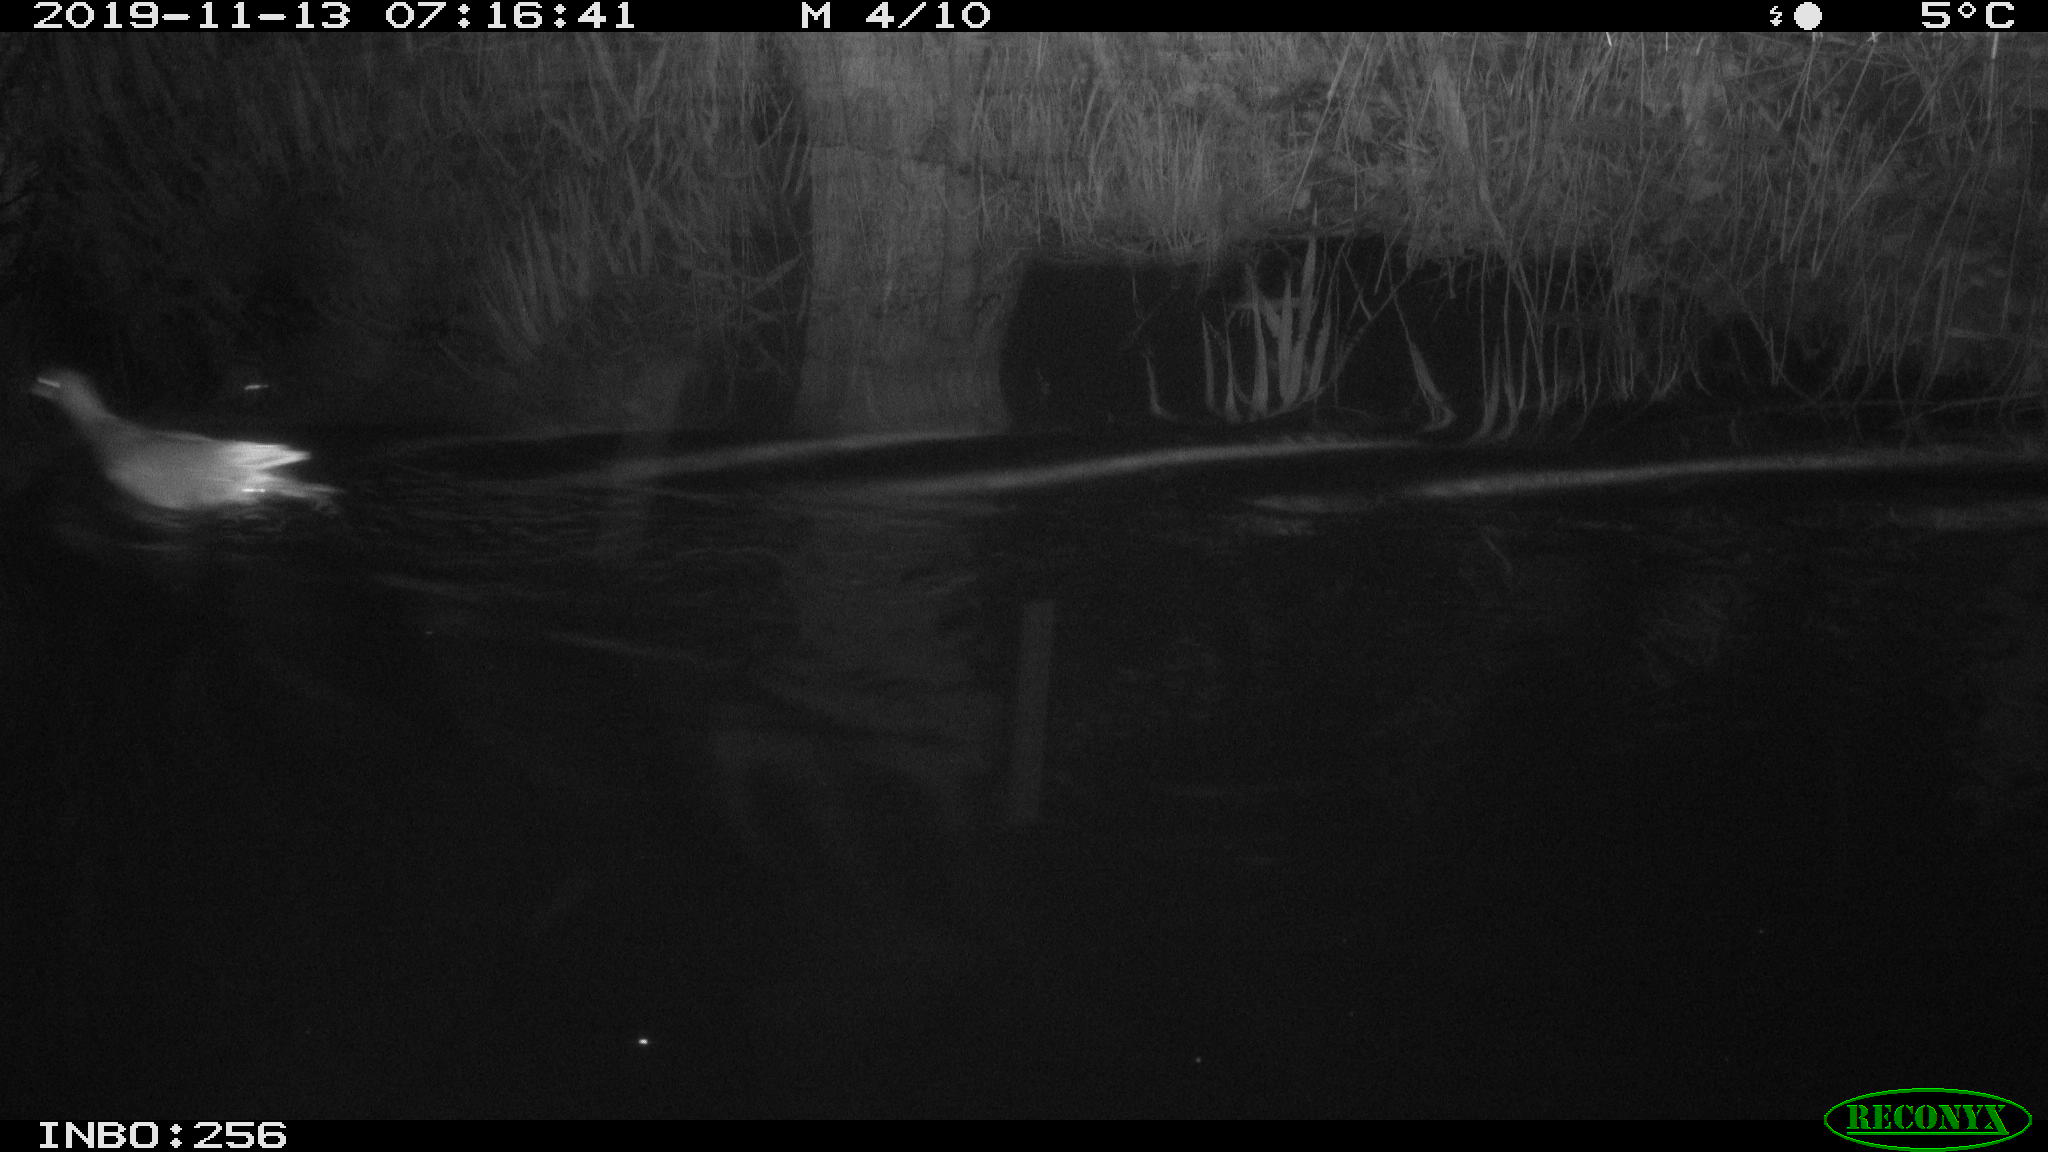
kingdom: Animalia
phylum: Chordata
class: Aves
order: Gruiformes
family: Rallidae
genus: Gallinula
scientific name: Gallinula chloropus
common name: Common moorhen
